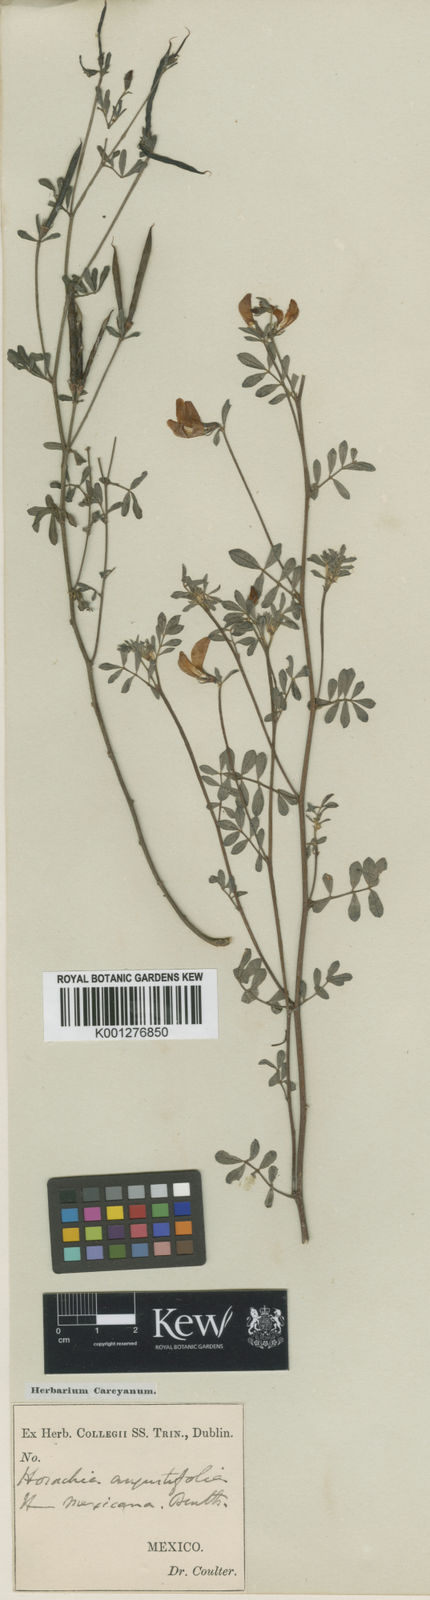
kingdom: Plantae
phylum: Tracheophyta
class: Magnoliopsida
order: Fabales
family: Fabaceae
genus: Lotus
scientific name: Lotus angustissimus
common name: Slender bird's-foot trefoil
